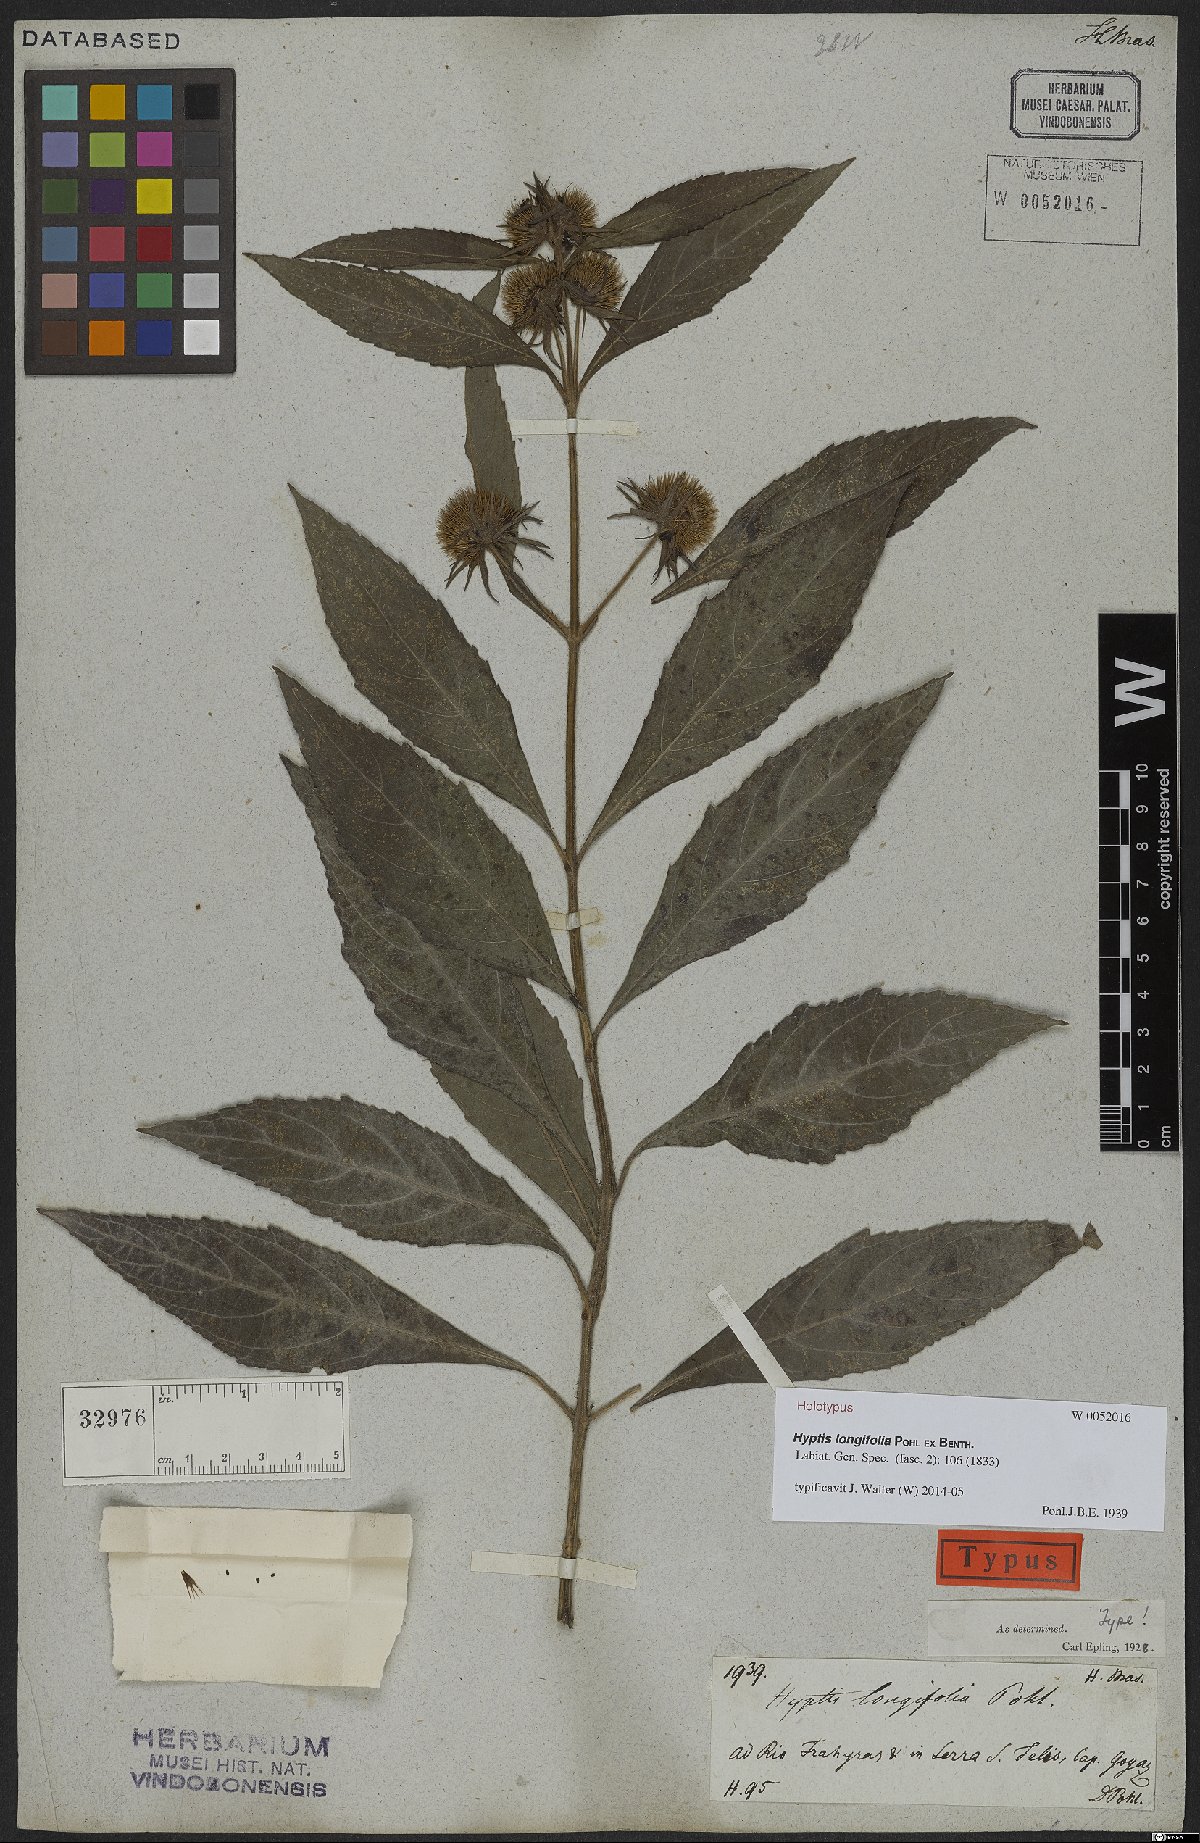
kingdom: Plantae
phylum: Tracheophyta
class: Magnoliopsida
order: Lamiales
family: Lamiaceae
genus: Hyptis
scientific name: Hyptis longifolia
